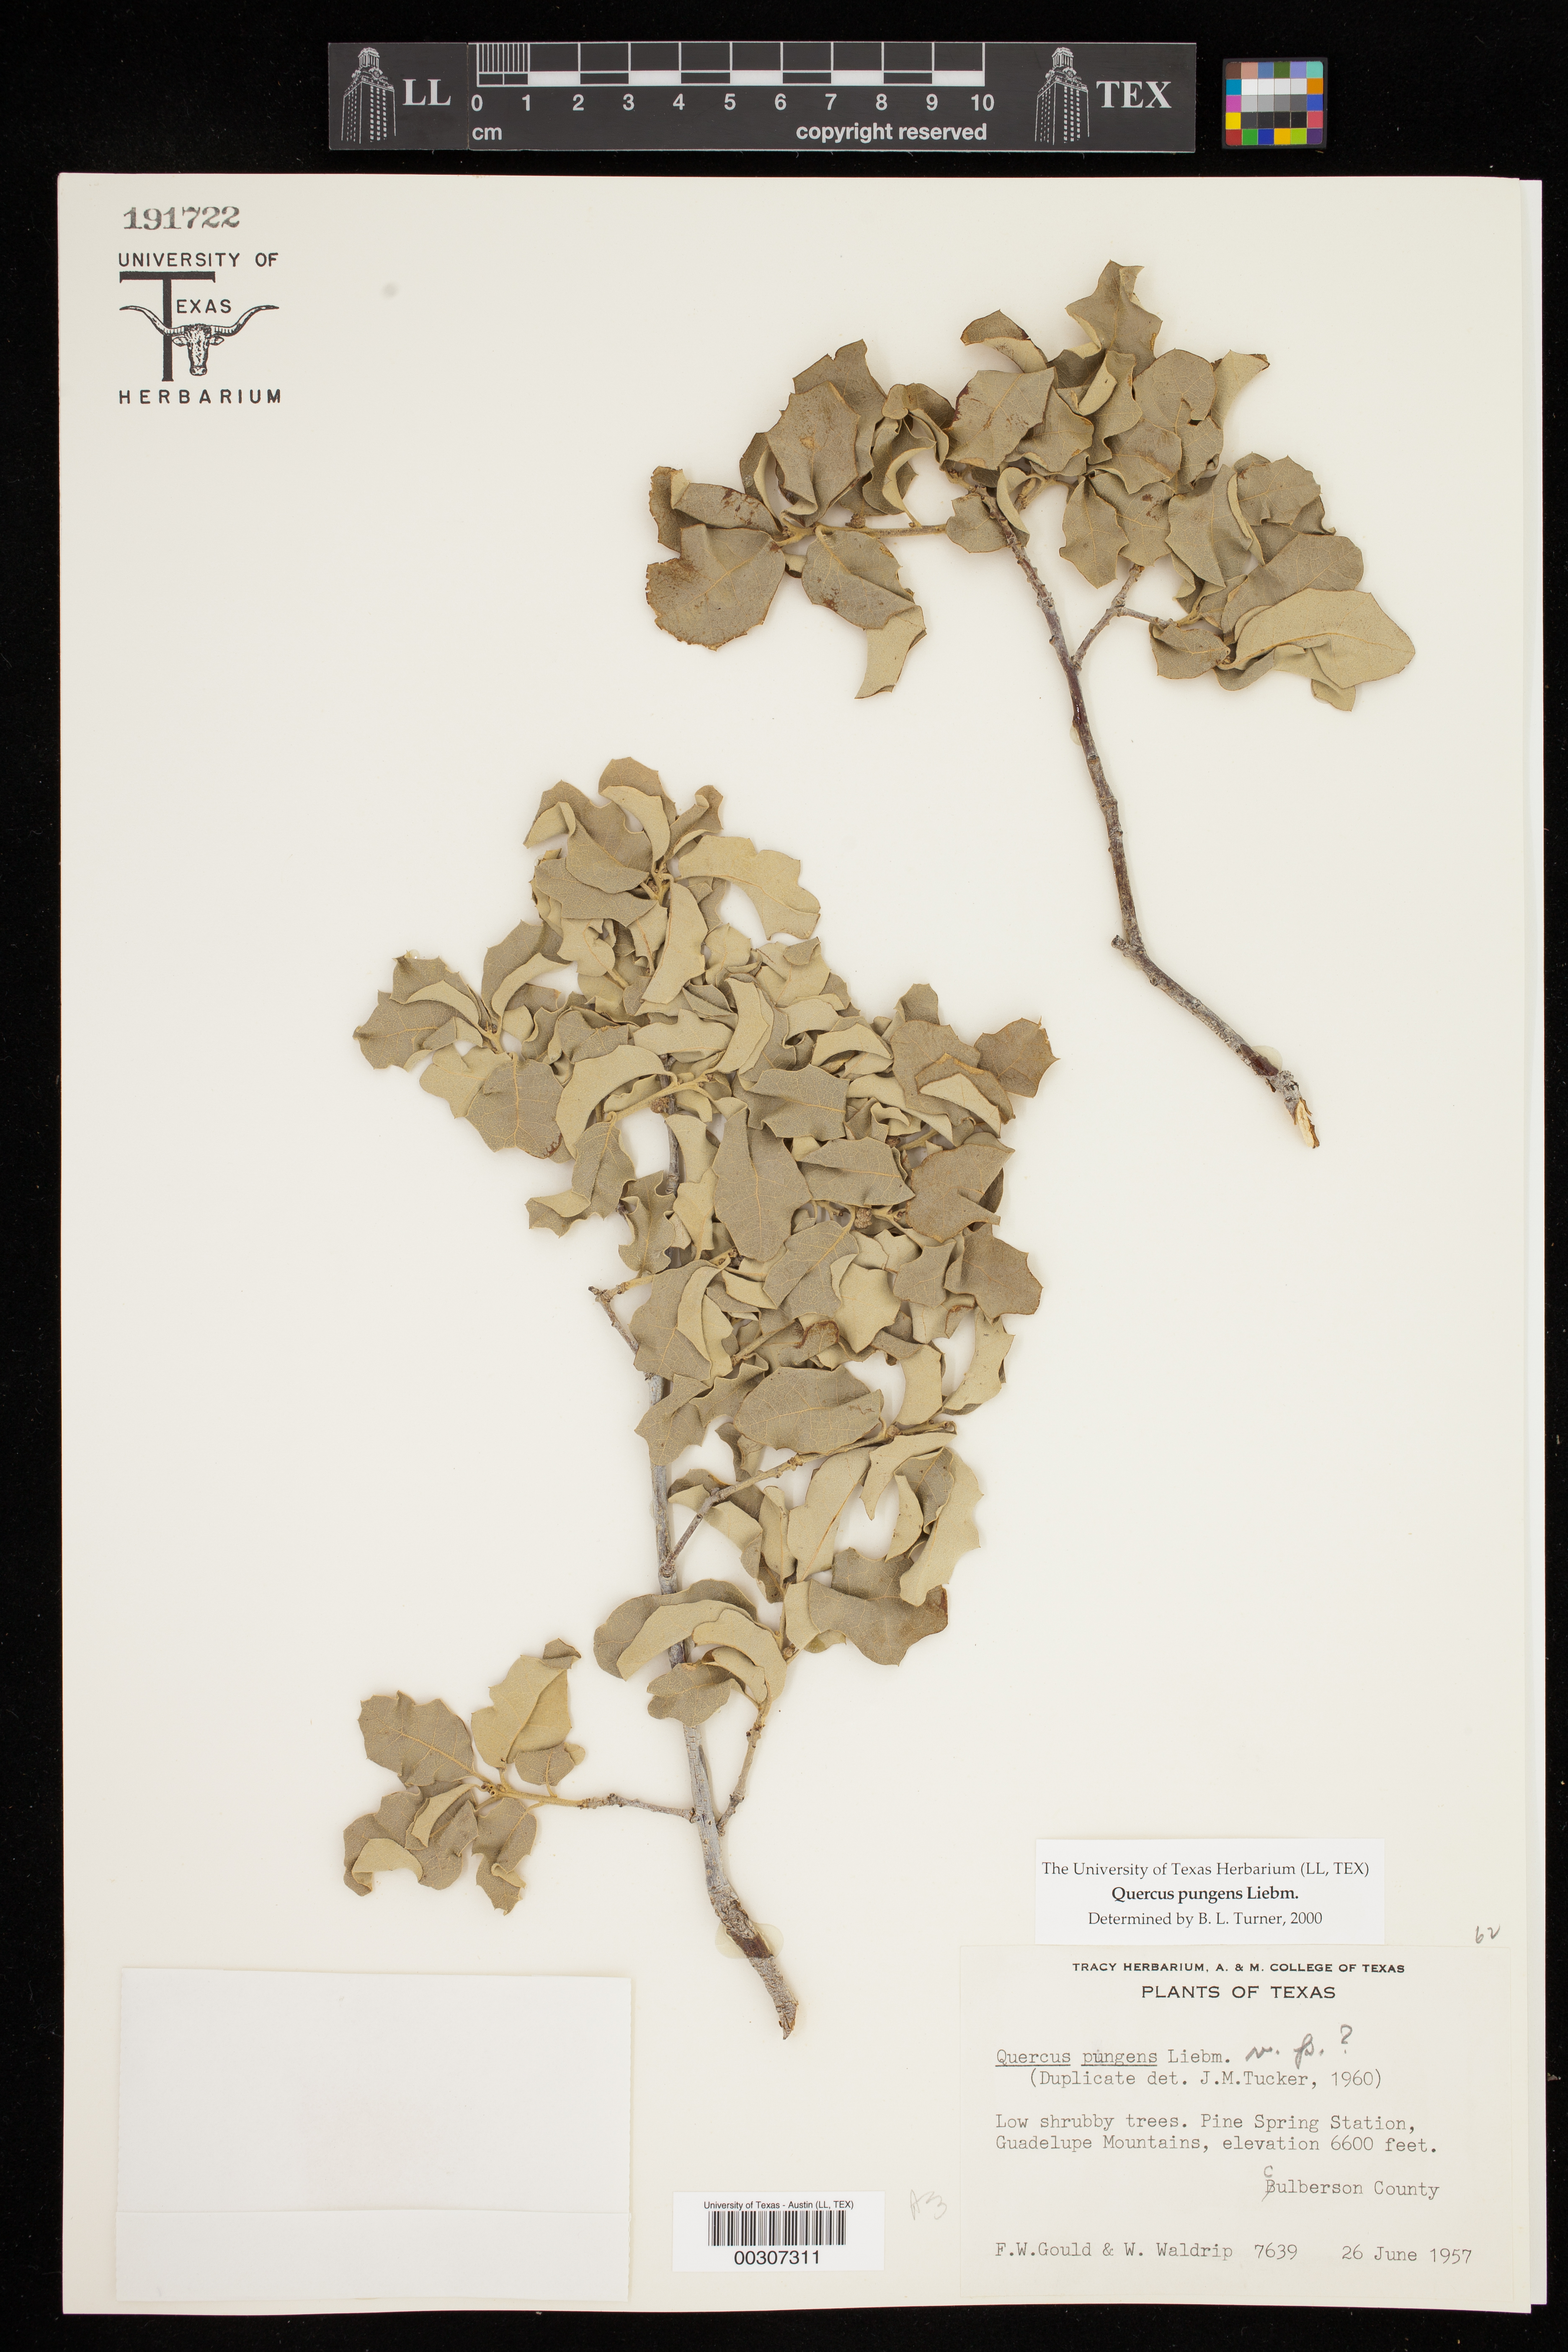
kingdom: Plantae
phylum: Tracheophyta
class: Magnoliopsida
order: Fagales
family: Fagaceae
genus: Quercus
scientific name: Quercus pungens
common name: Pungent oak
